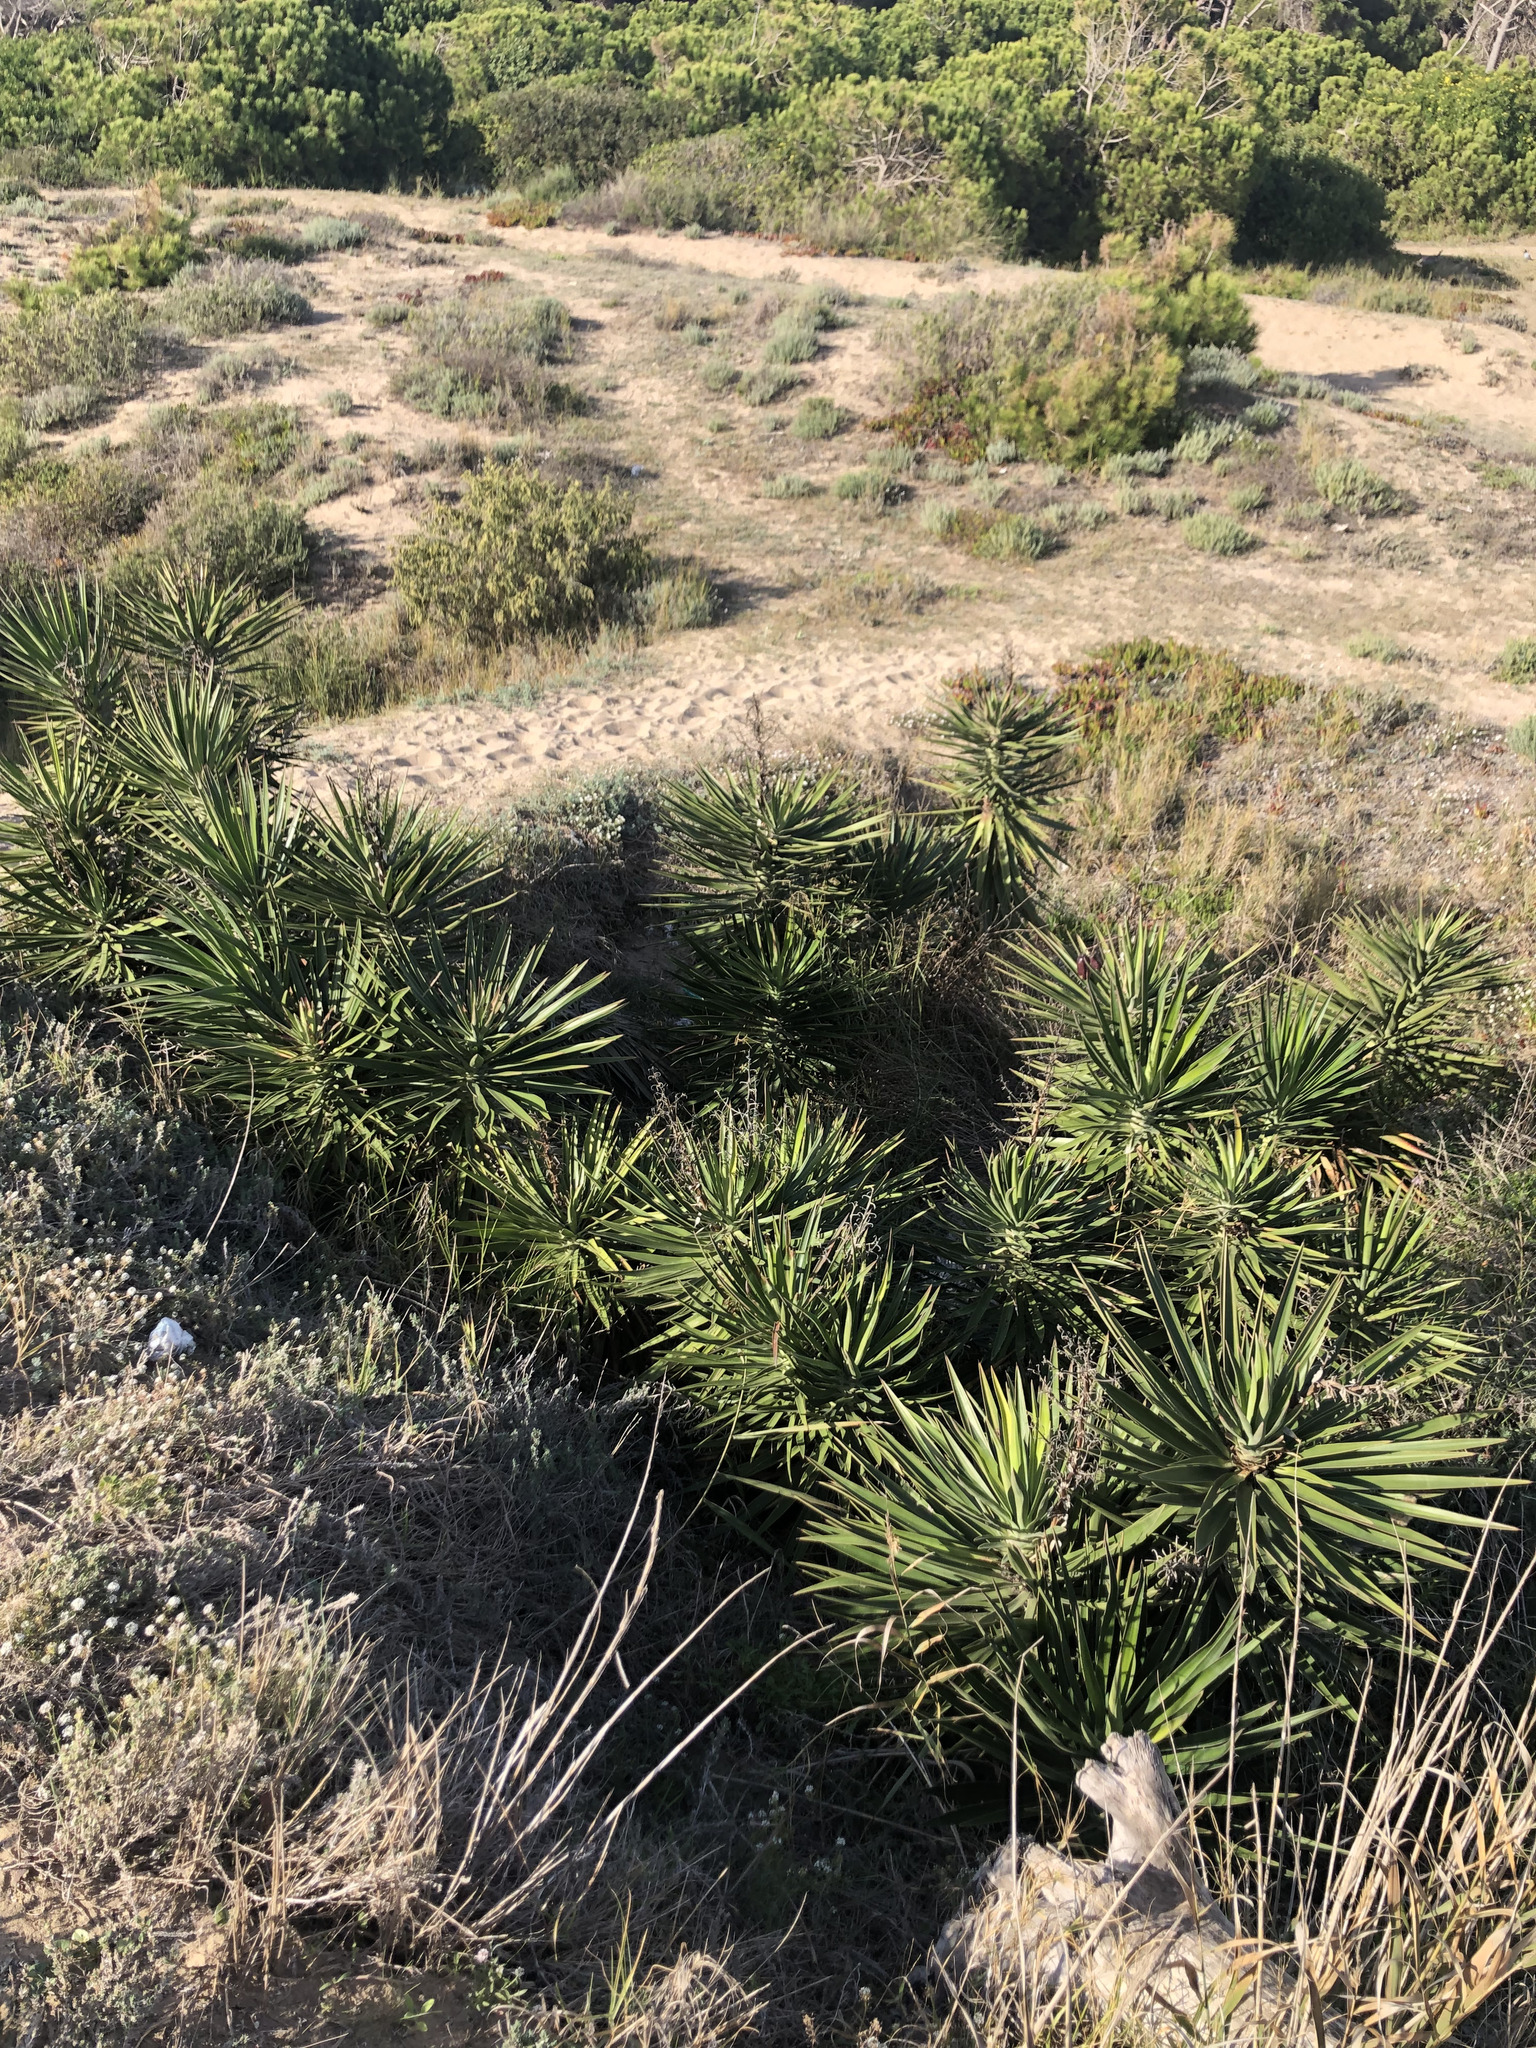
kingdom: Plantae
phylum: Tracheophyta
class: Liliopsida
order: Asparagales
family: Asparagaceae
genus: Yucca
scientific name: Yucca aloifolia
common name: Aloe yucca
